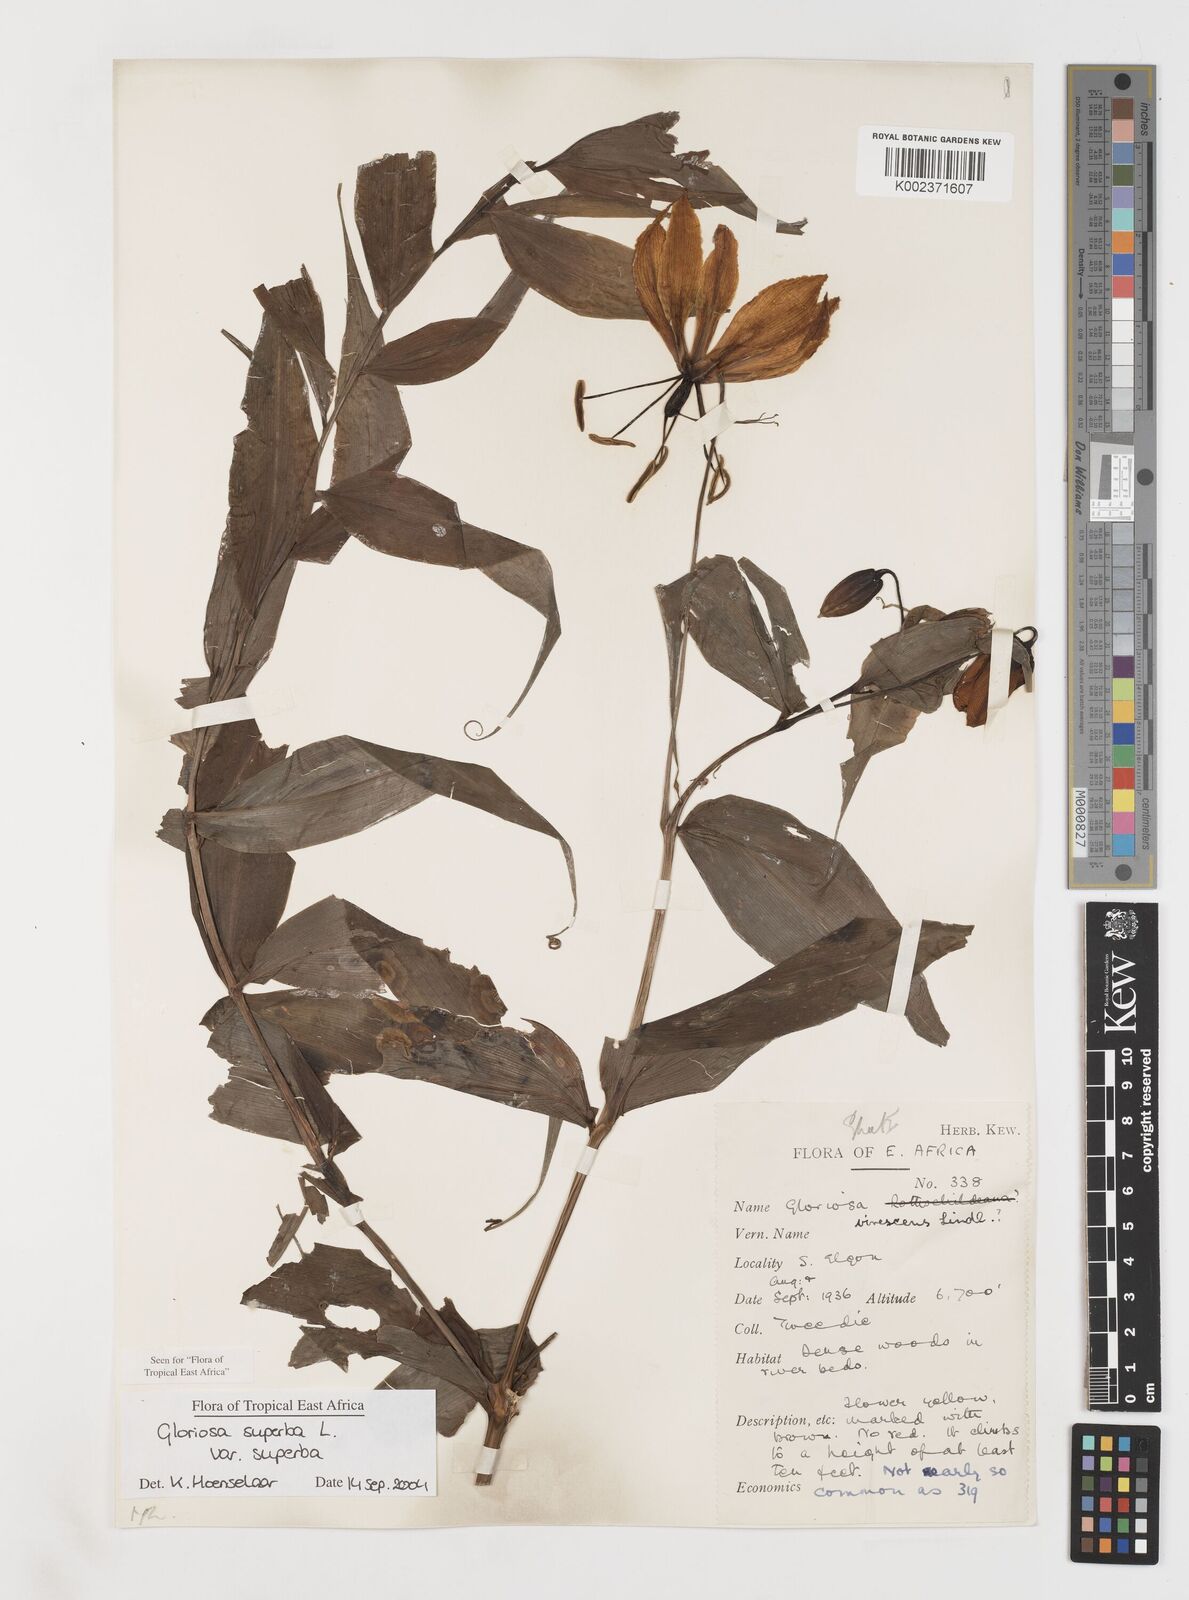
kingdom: Plantae
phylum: Tracheophyta
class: Liliopsida
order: Liliales
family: Colchicaceae
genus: Gloriosa
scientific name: Gloriosa simplex
